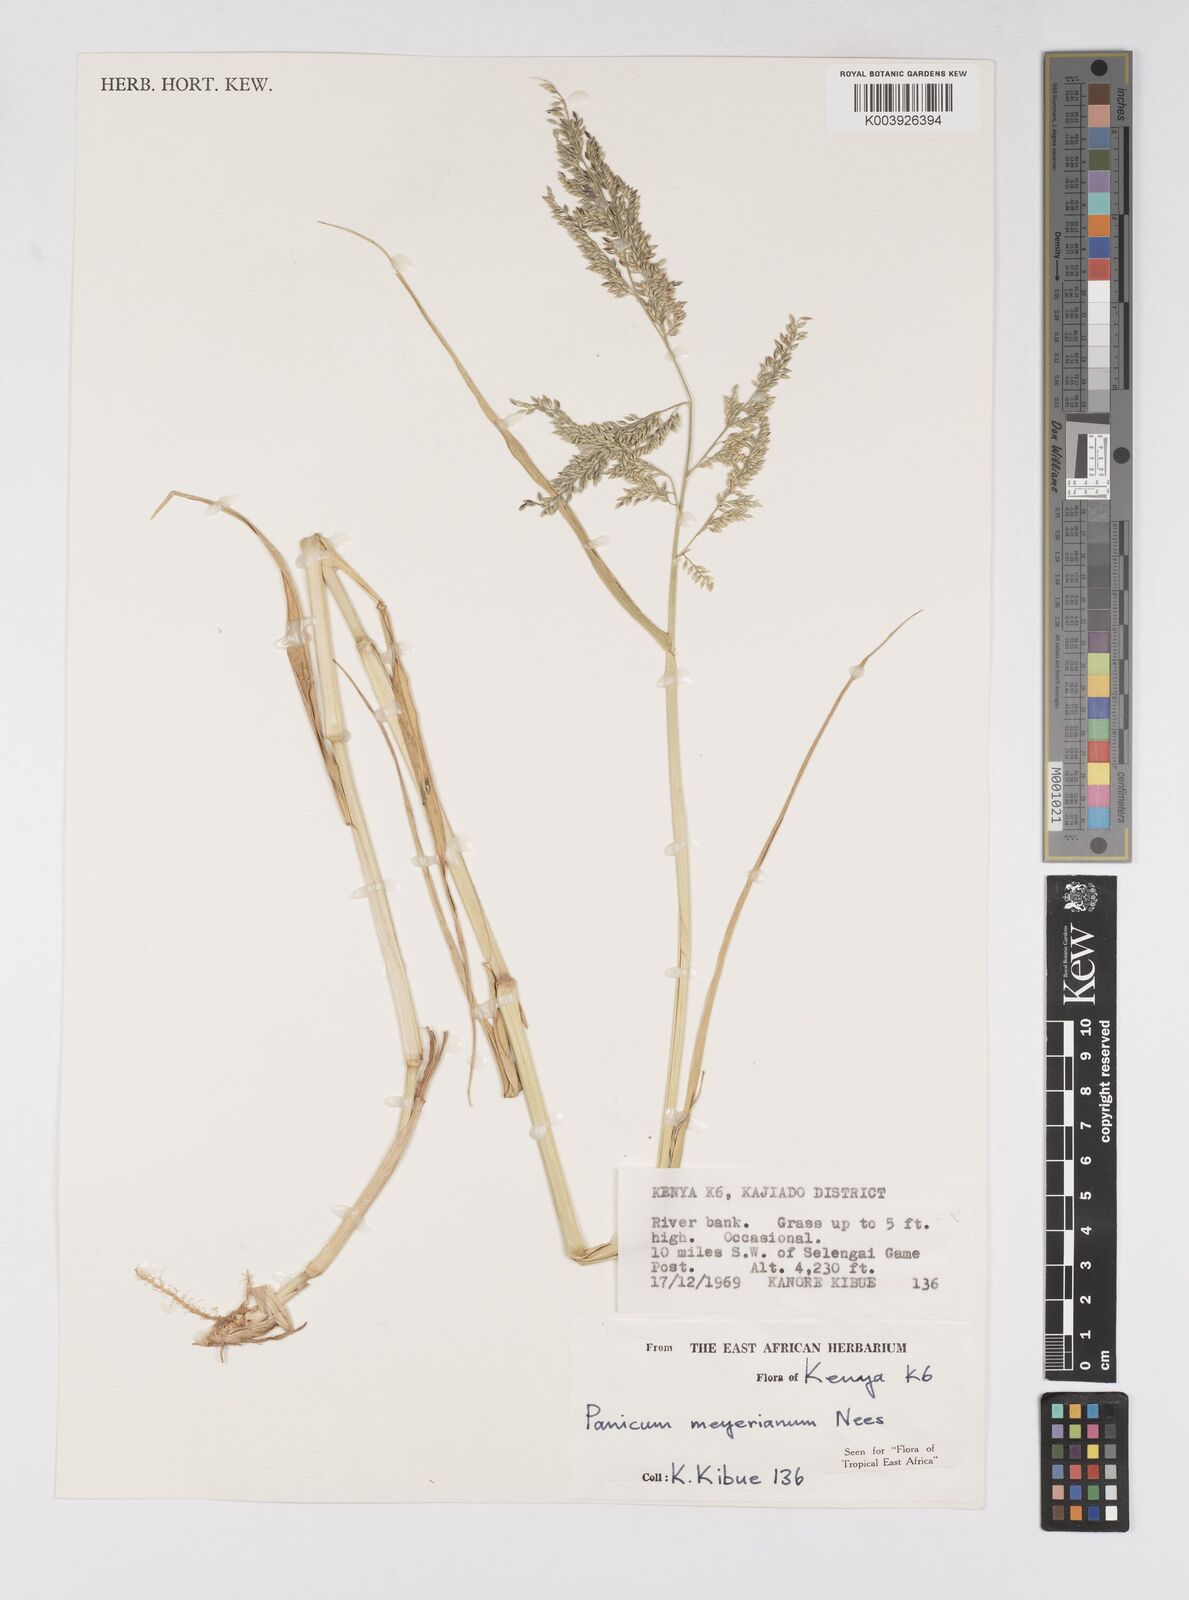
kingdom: Plantae
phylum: Tracheophyta
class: Liliopsida
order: Poales
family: Poaceae
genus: Eriochloa
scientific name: Eriochloa meyeriana
